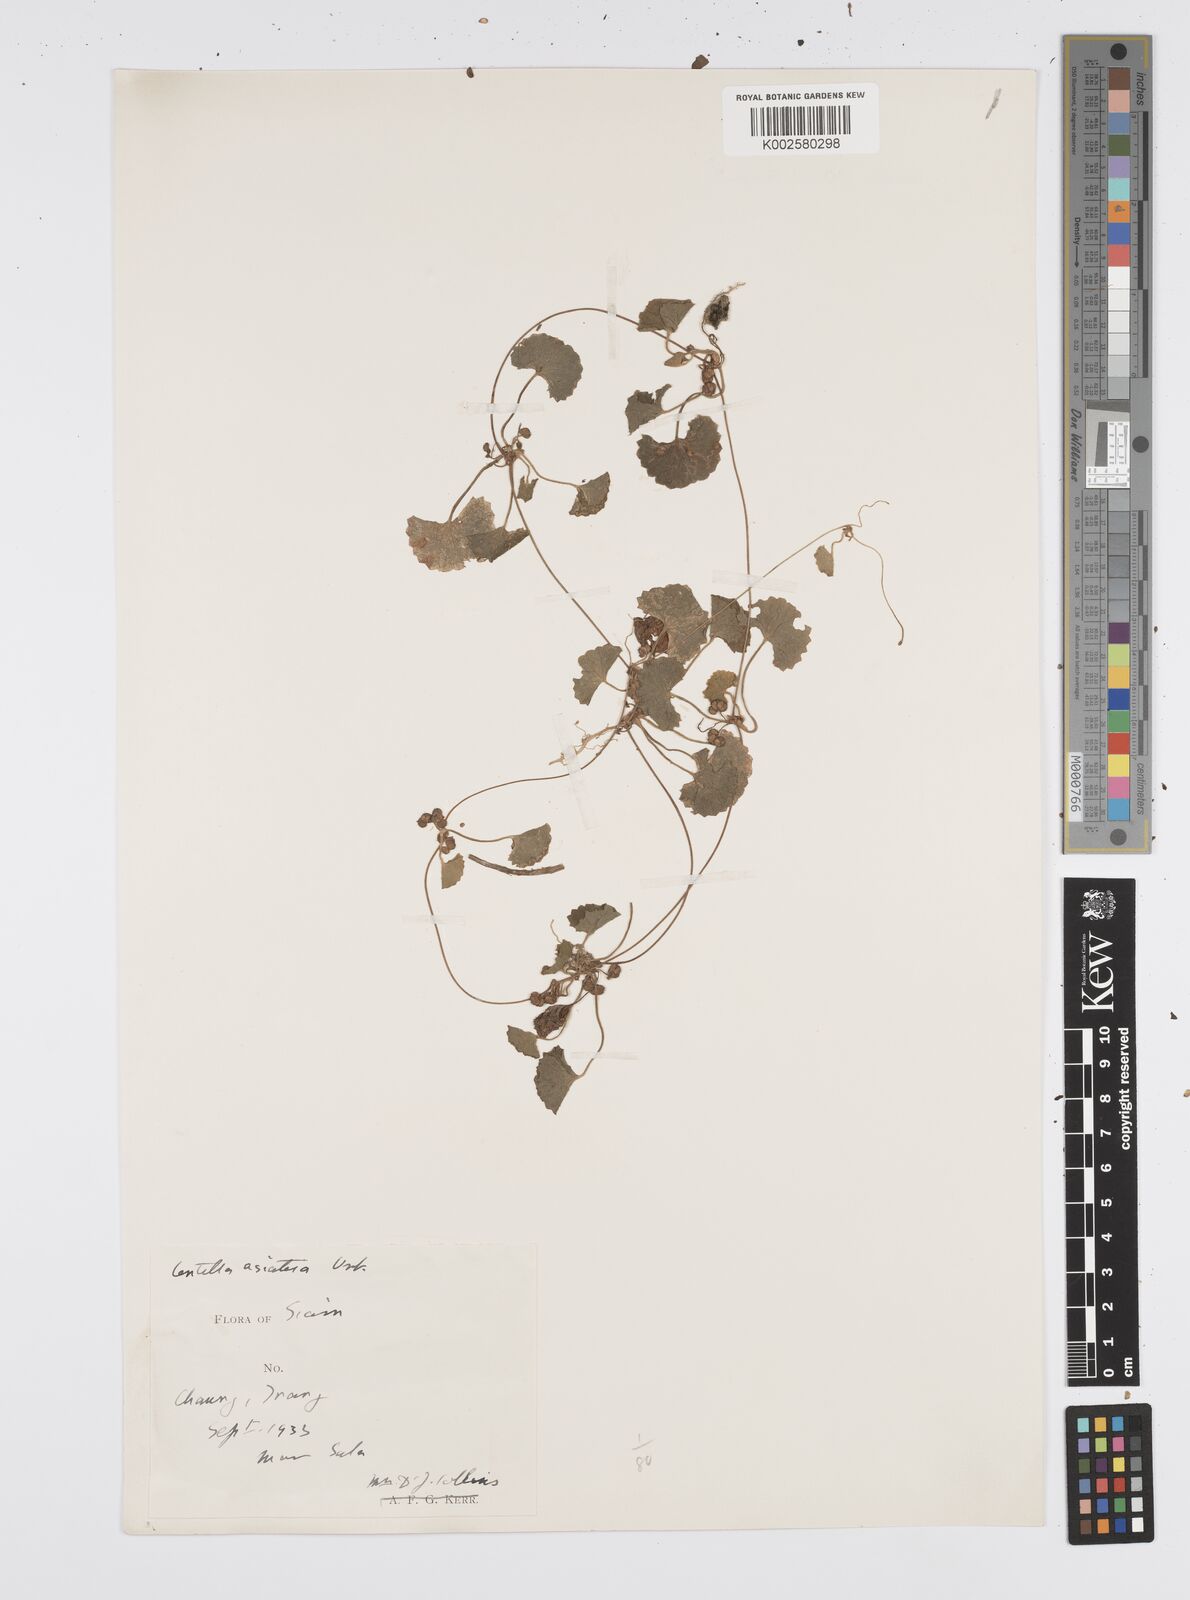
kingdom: Plantae
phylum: Tracheophyta
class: Magnoliopsida
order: Apiales
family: Apiaceae
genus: Centella
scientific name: Centella asiatica
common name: Spadeleaf
